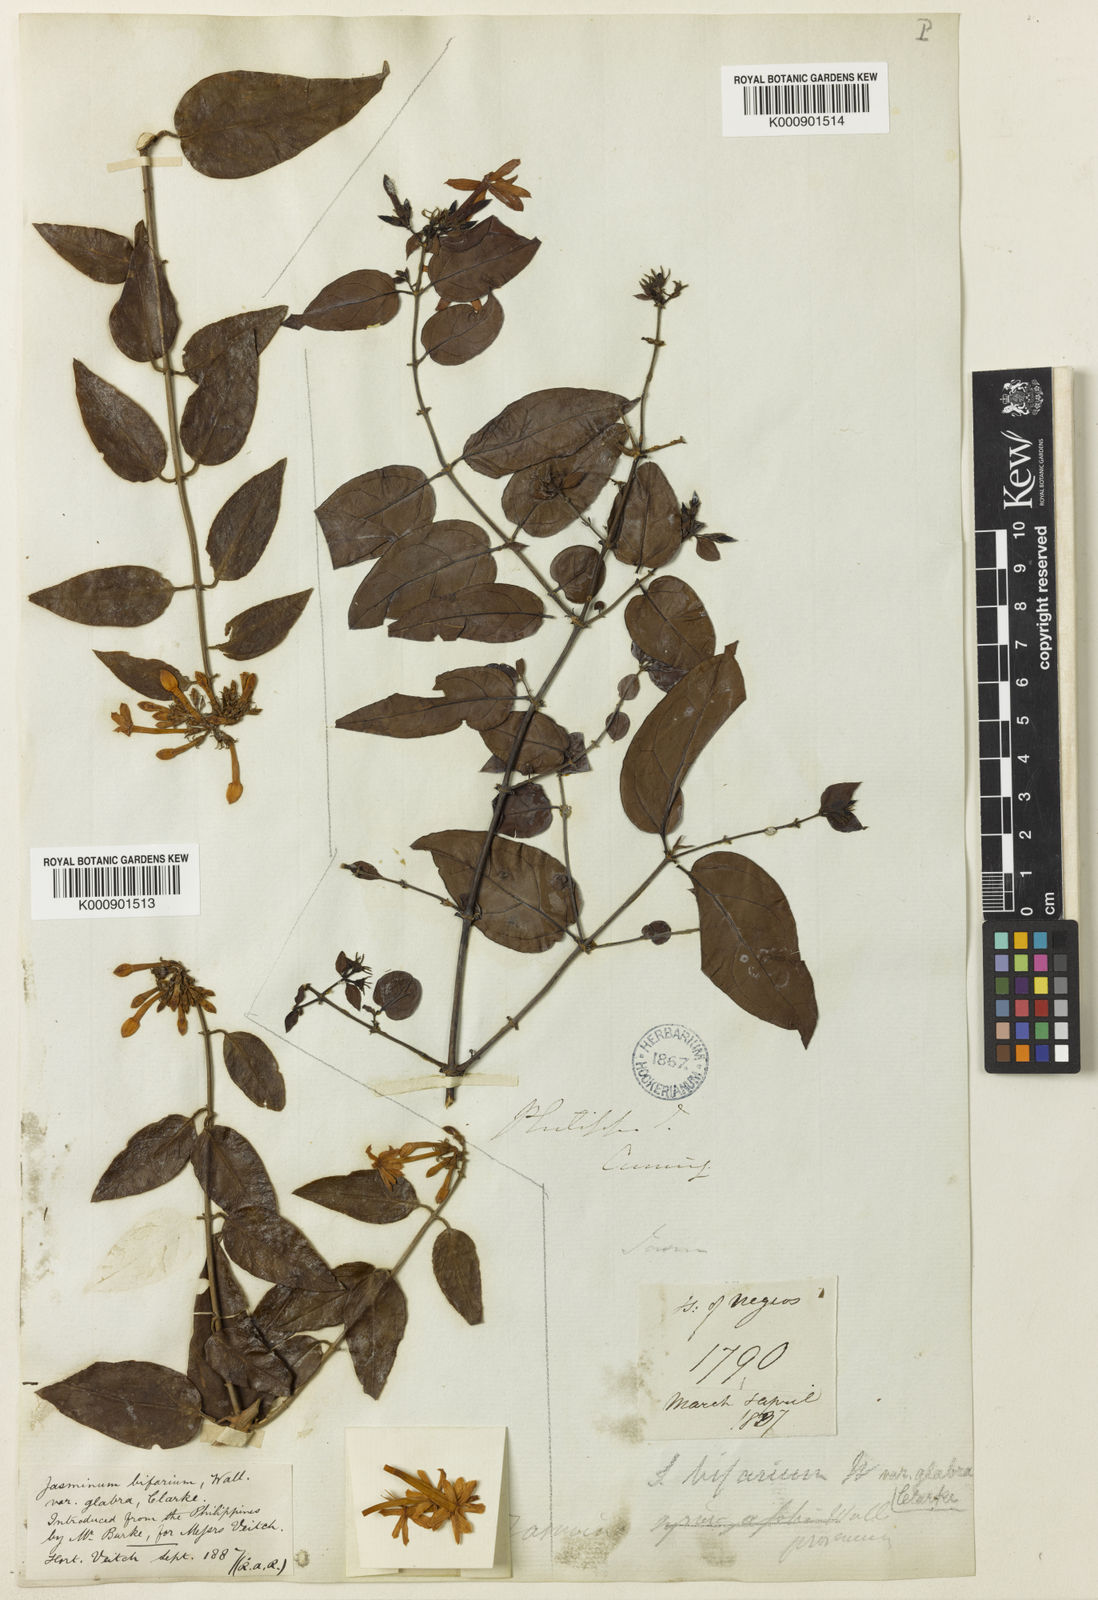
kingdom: Plantae
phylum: Tracheophyta
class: Magnoliopsida
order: Lamiales
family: Oleaceae
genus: Jasminum
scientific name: Jasminum
